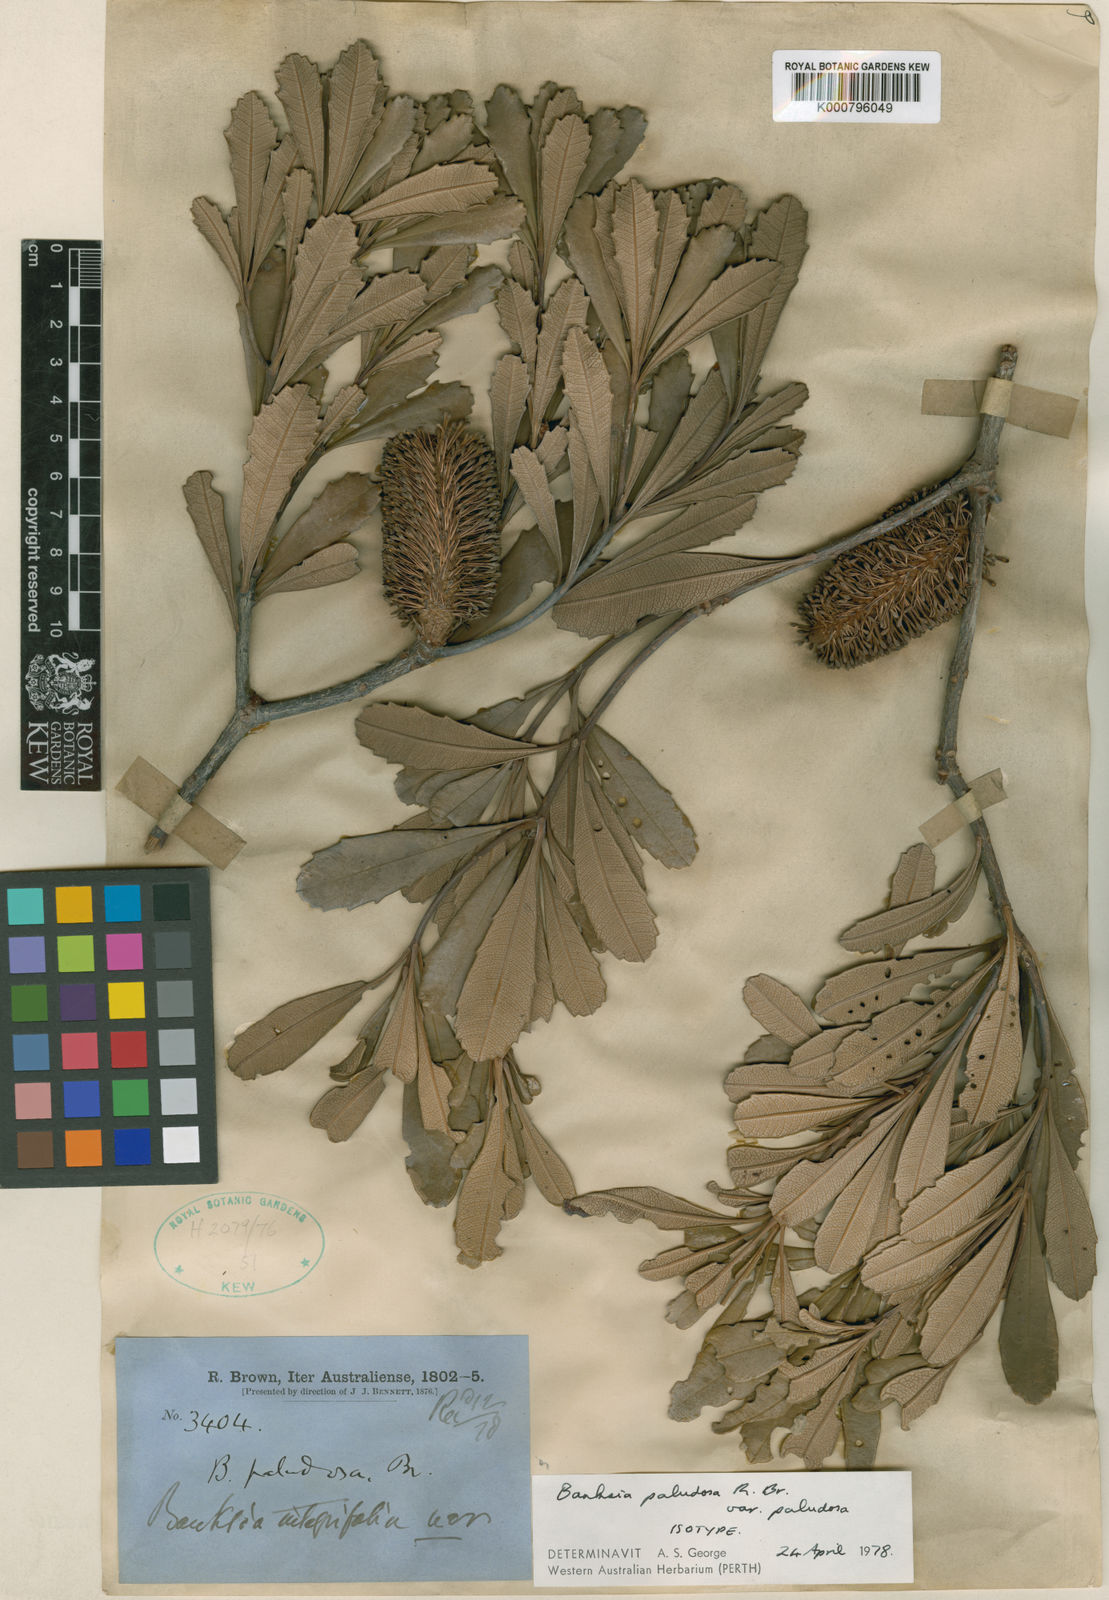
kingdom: Plantae
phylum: Tracheophyta
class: Magnoliopsida
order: Proteales
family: Proteaceae
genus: Banksia
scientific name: Banksia paludosa
